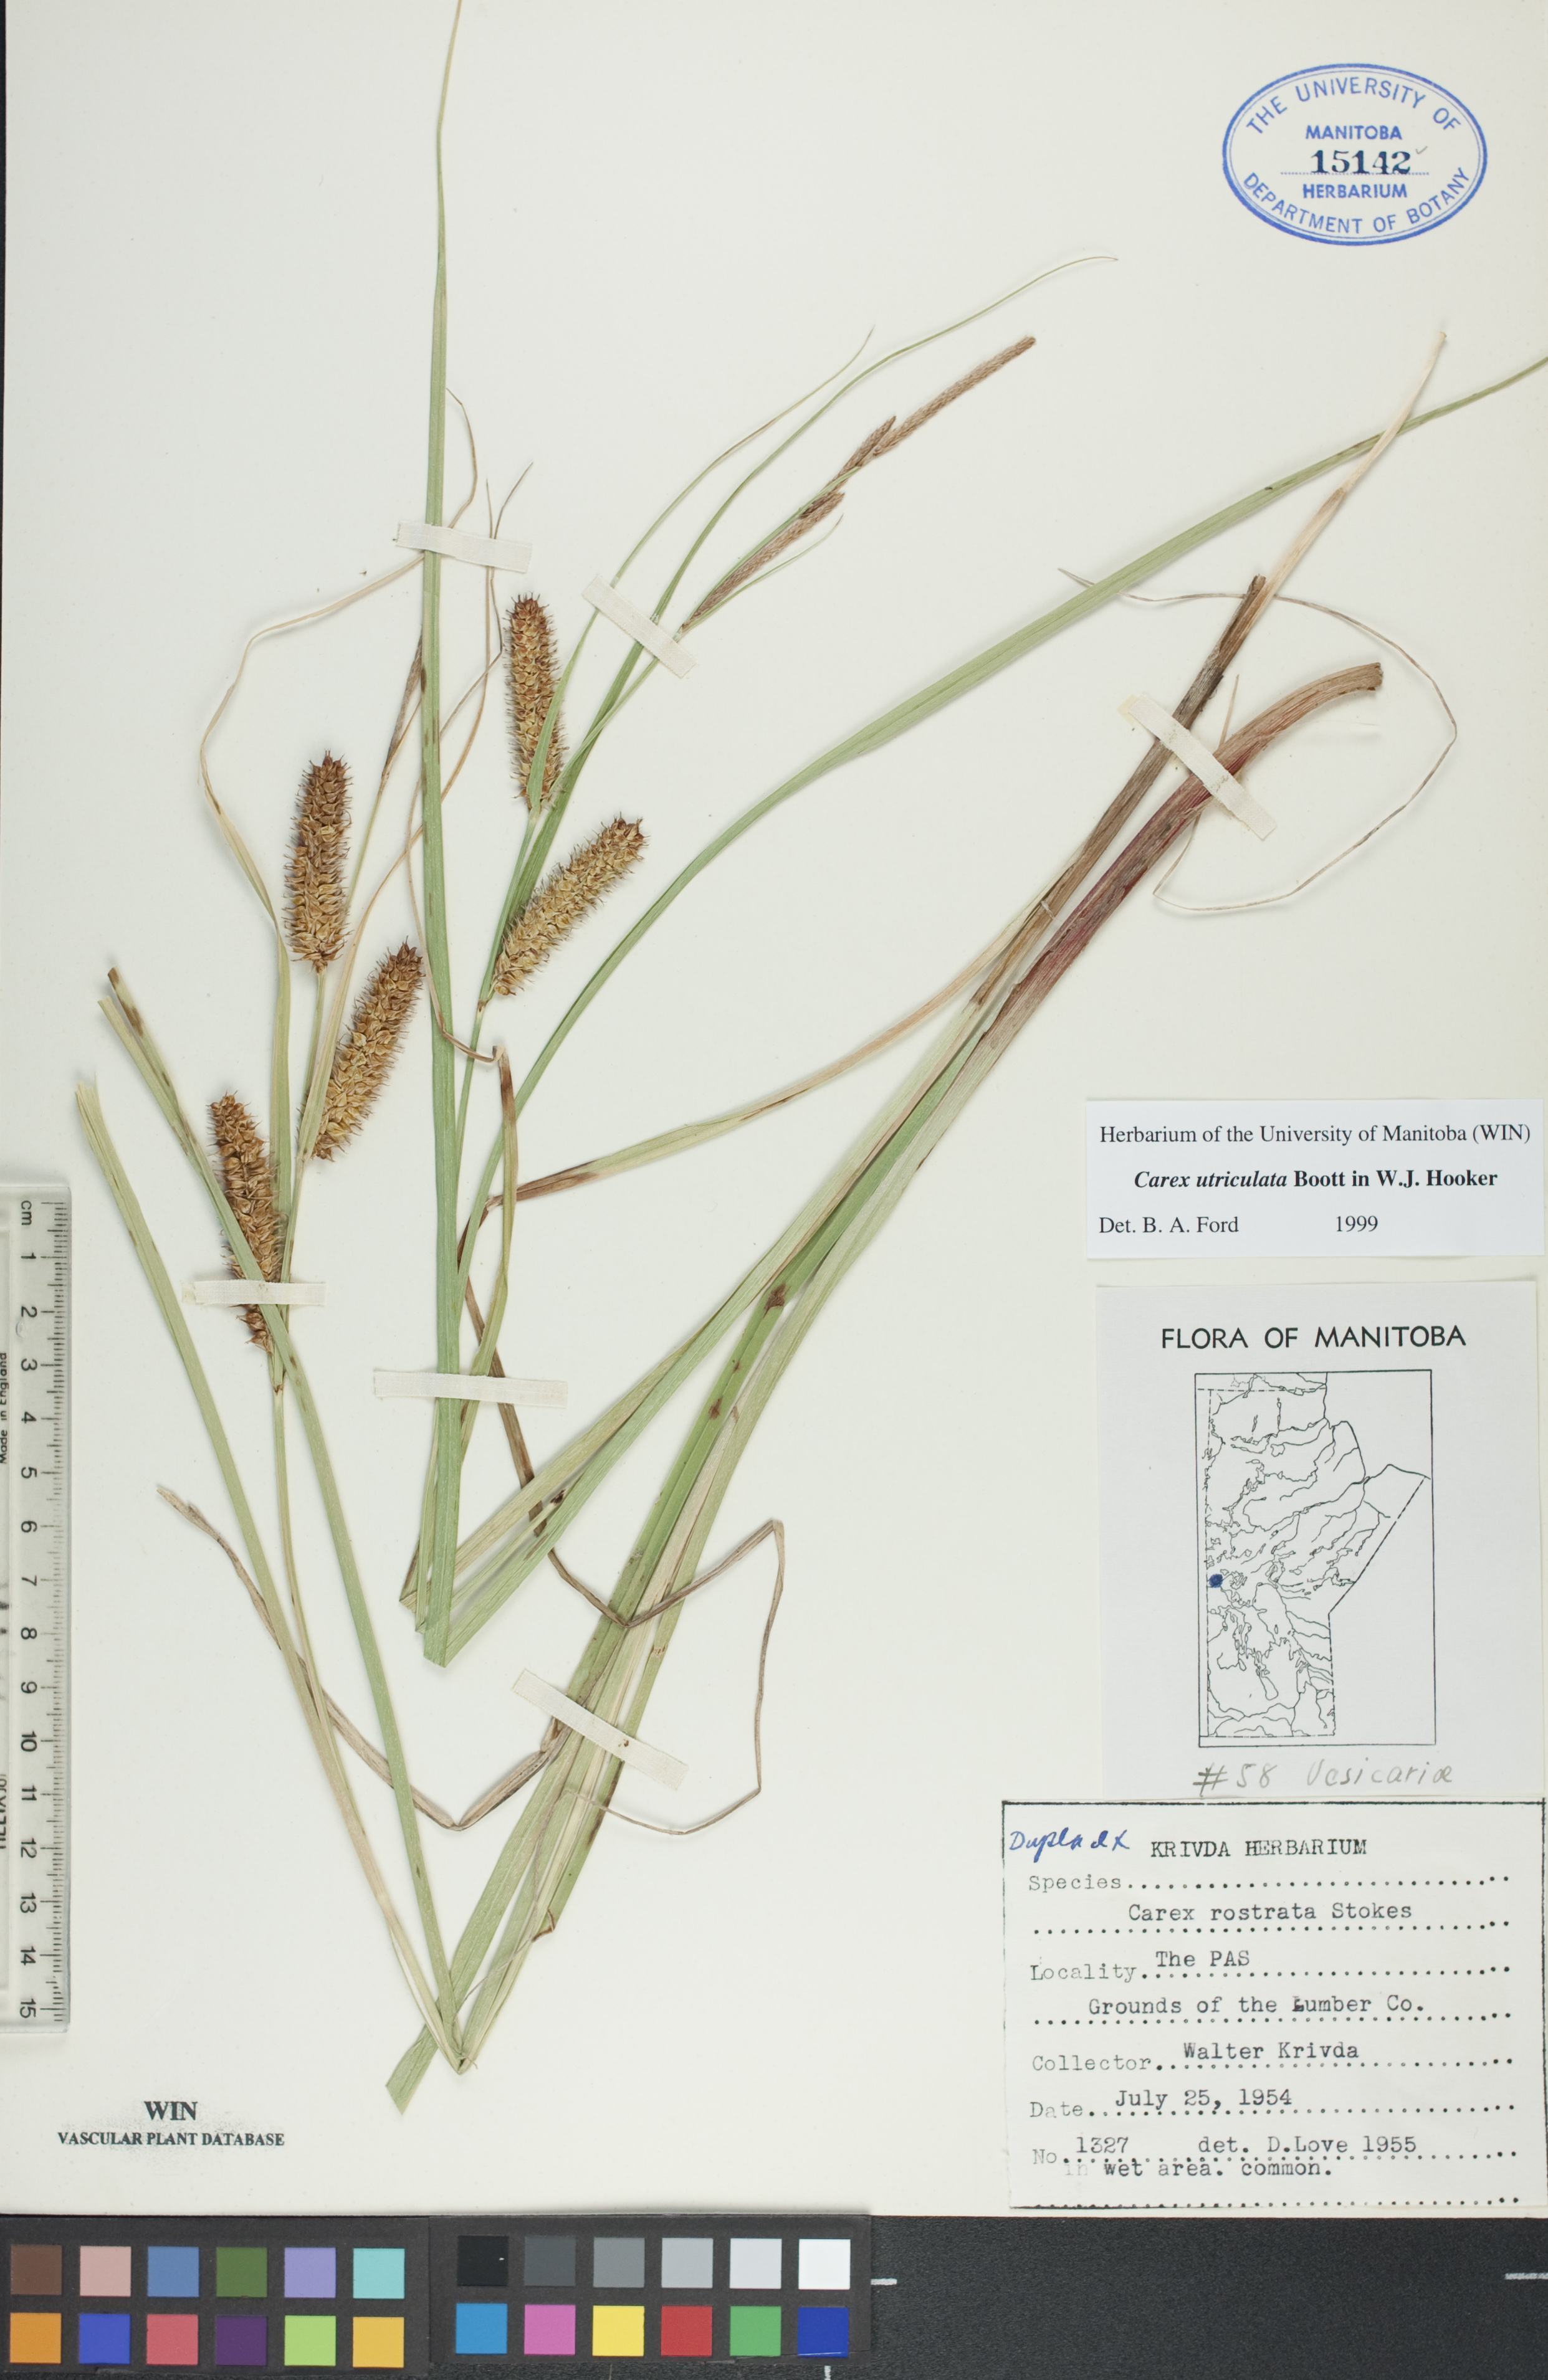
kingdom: Plantae
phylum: Tracheophyta
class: Liliopsida
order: Poales
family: Cyperaceae
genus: Carex
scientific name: Carex utriculata
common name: Beaked sedge
